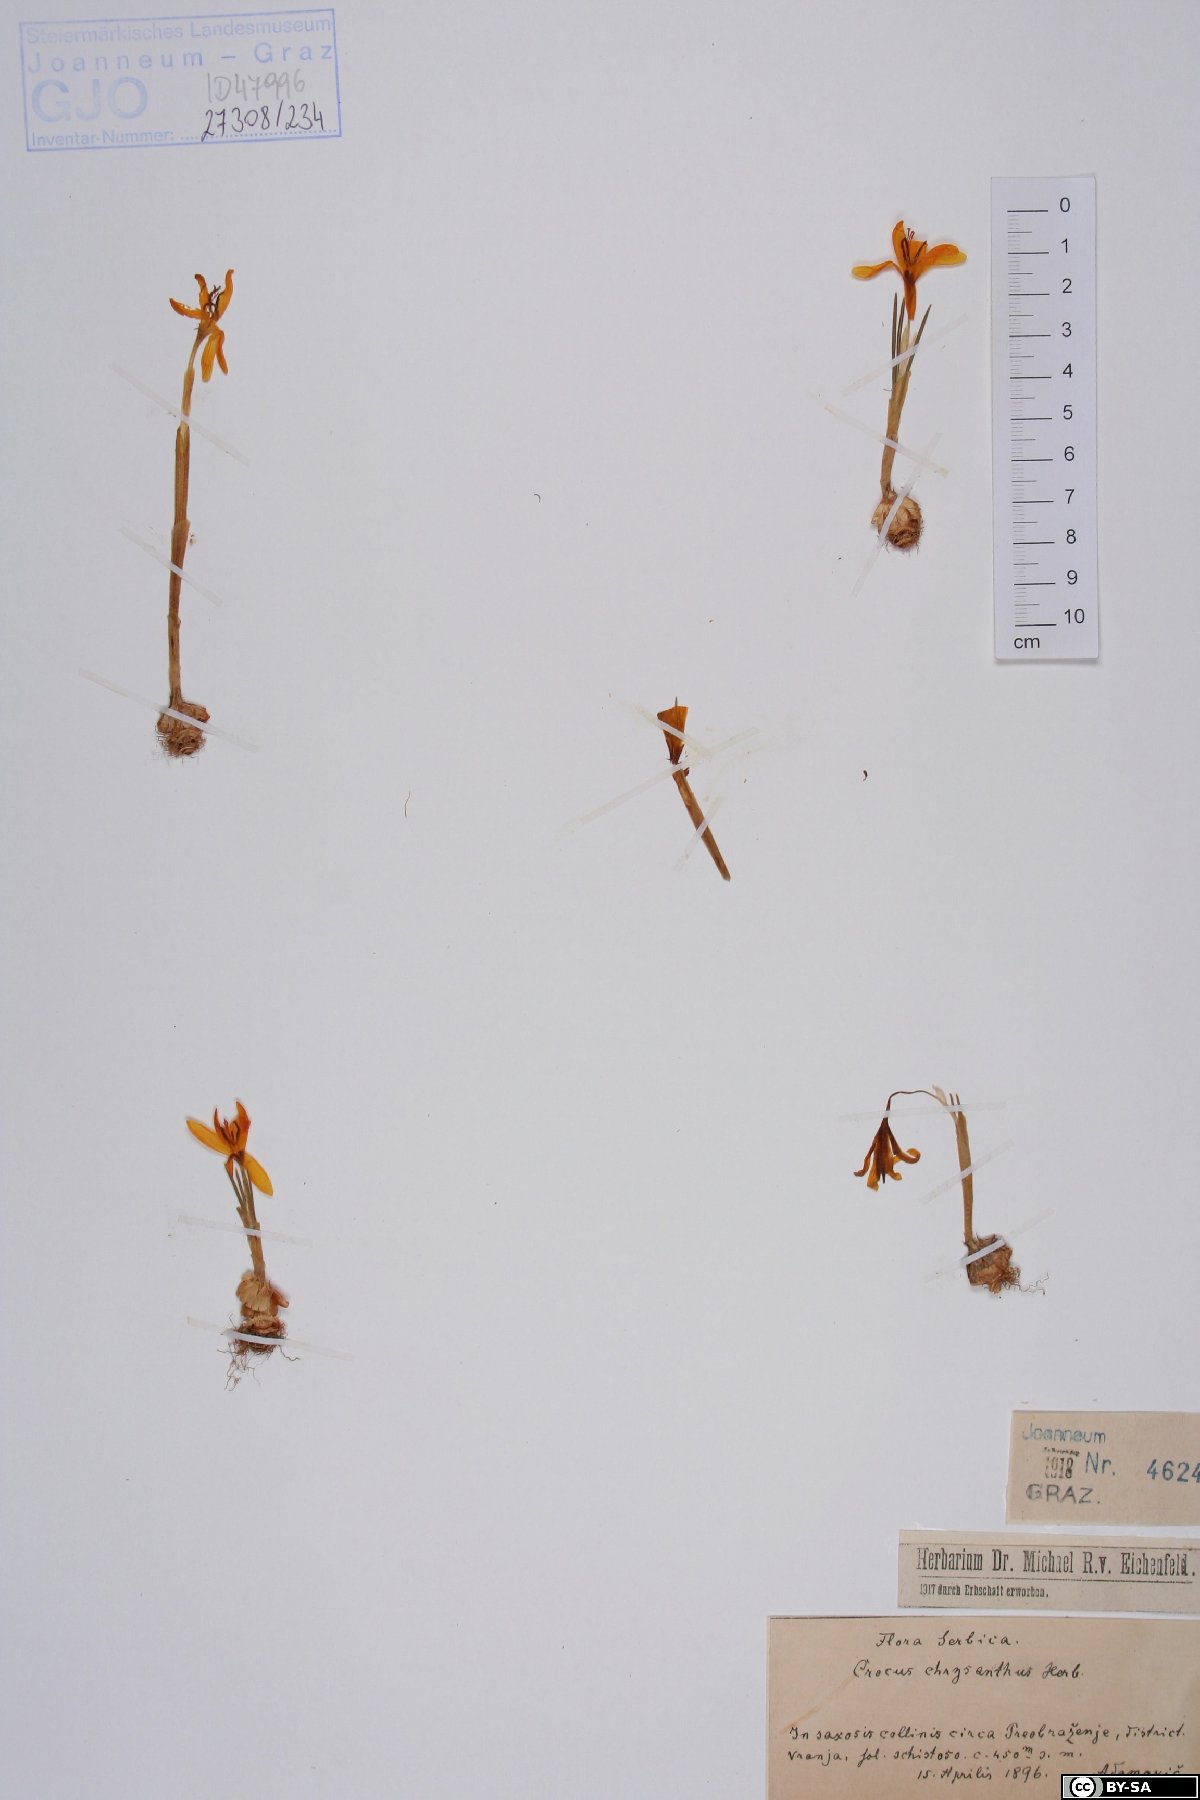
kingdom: Plantae
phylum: Tracheophyta
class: Liliopsida
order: Asparagales
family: Iridaceae
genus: Crocus
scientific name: Crocus chrysanthus
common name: Golden crocus
